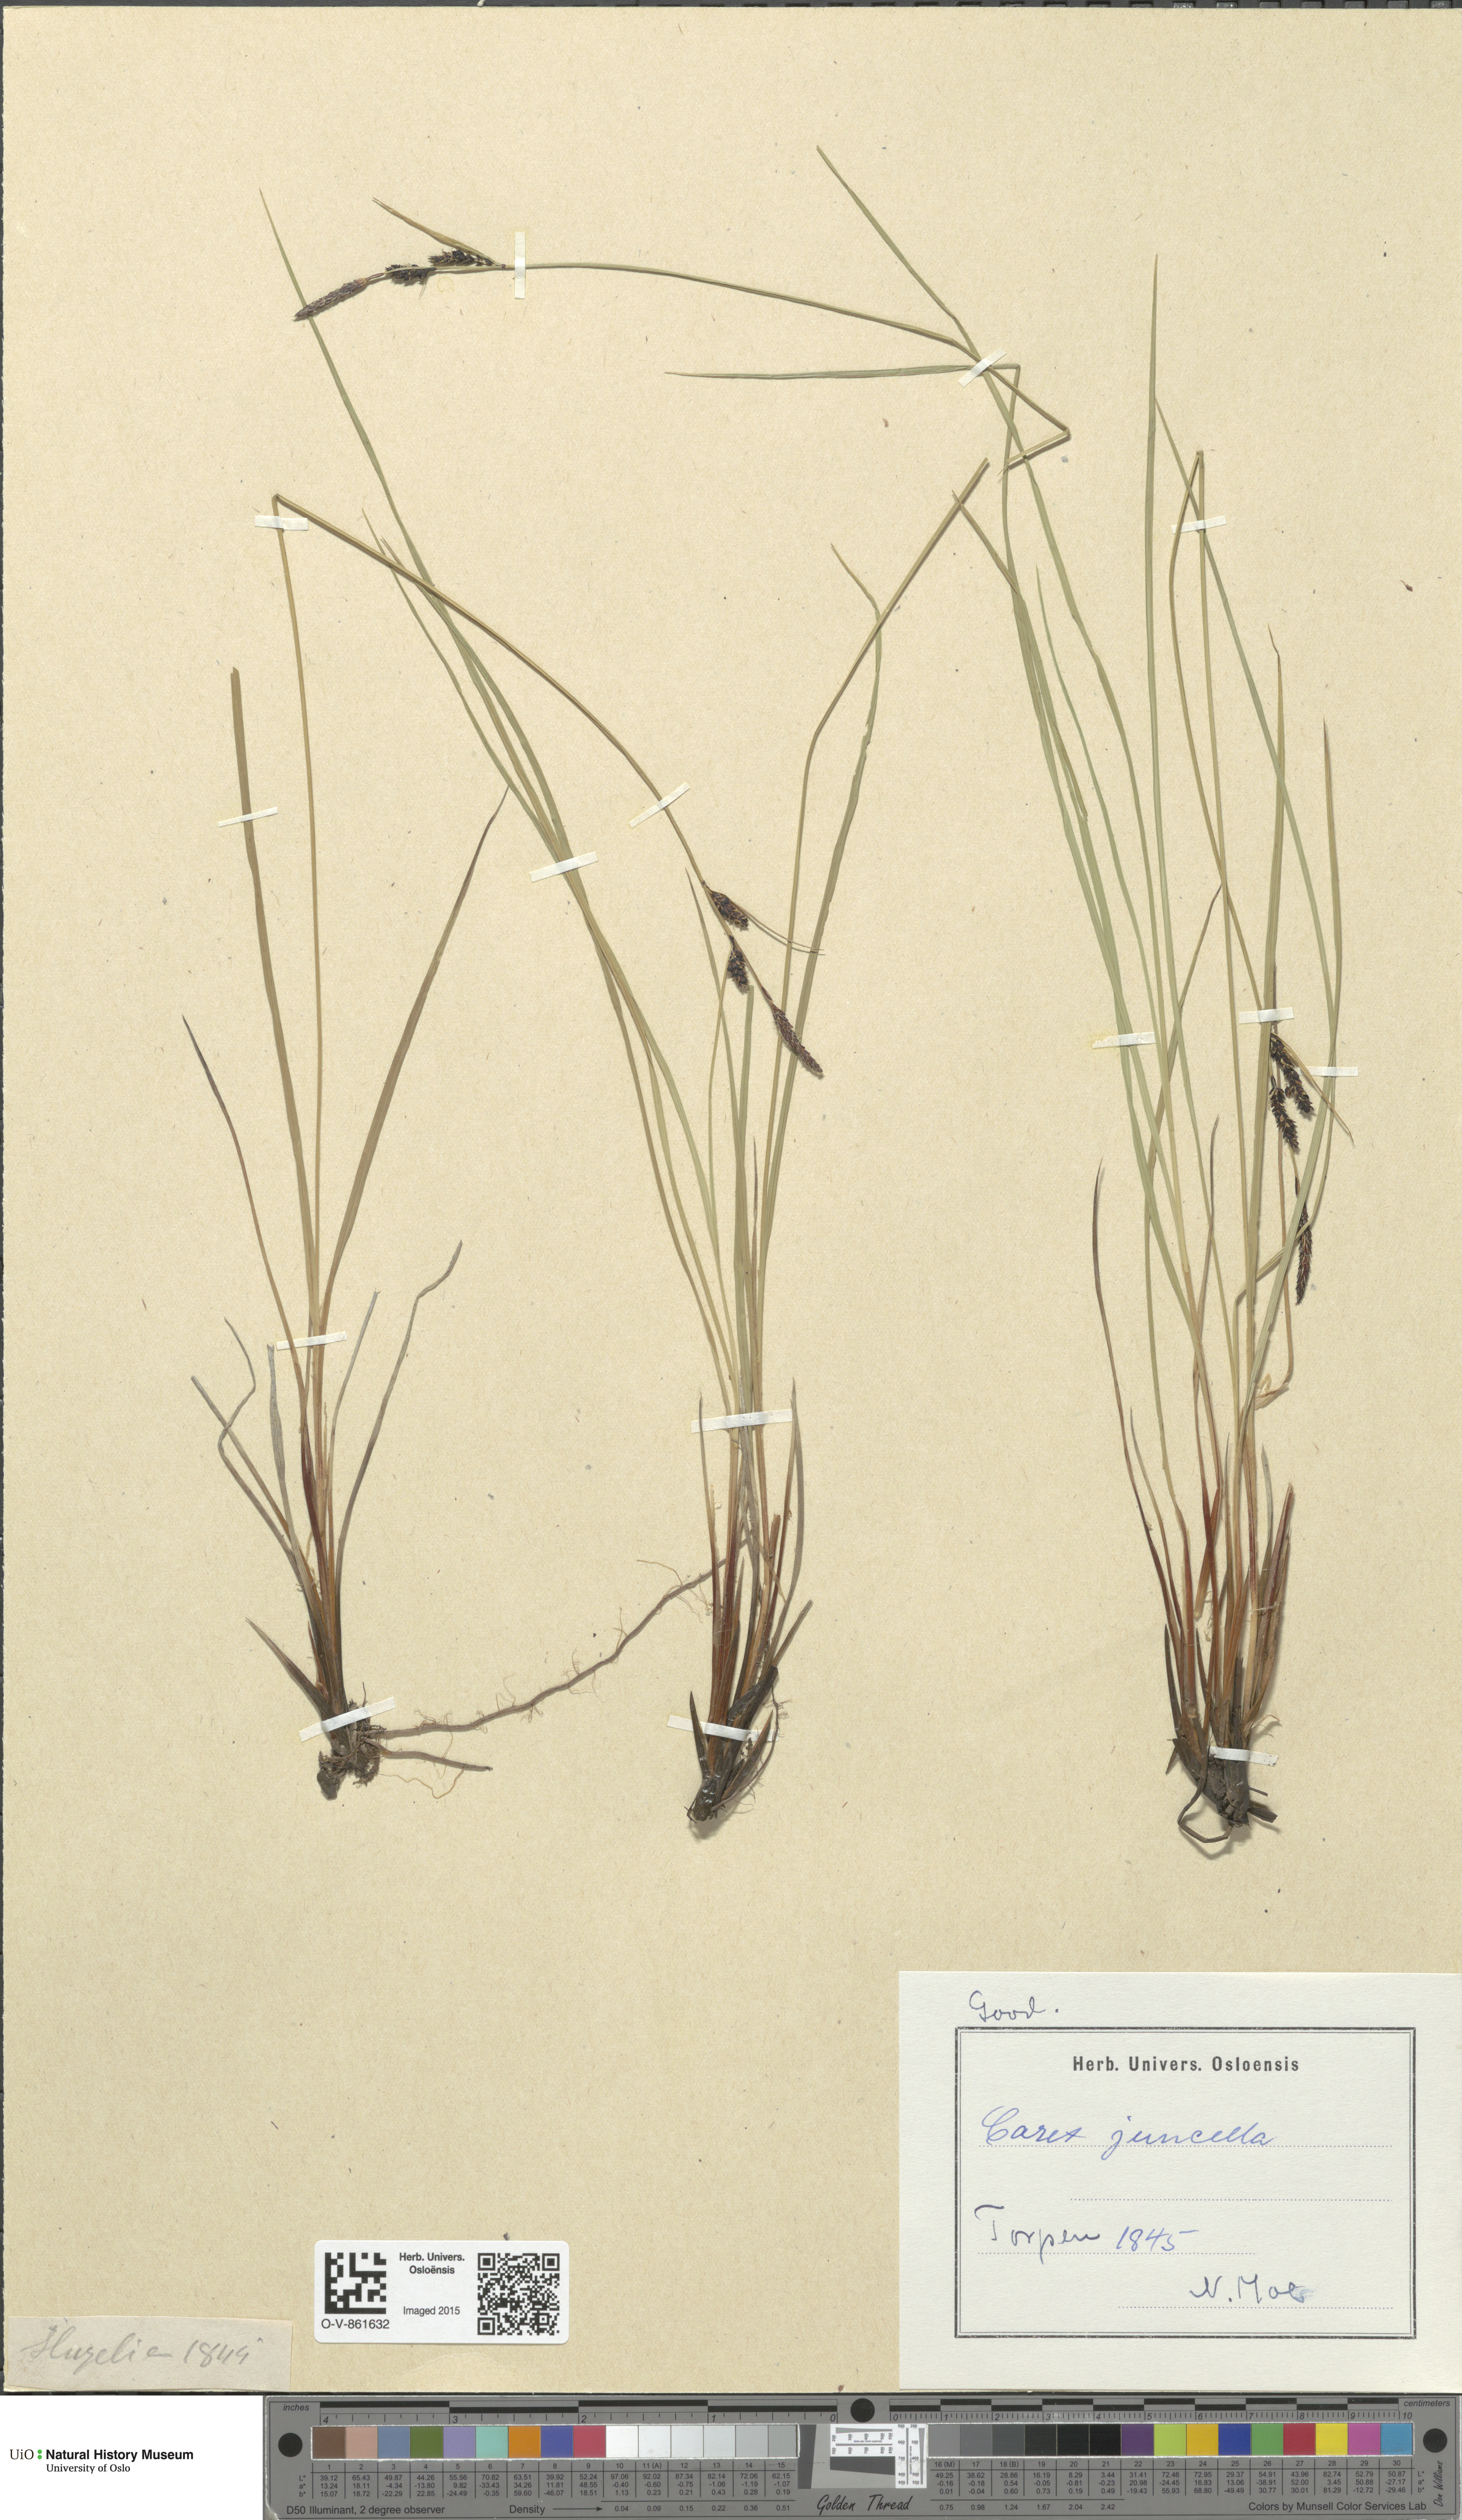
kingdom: Plantae
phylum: Tracheophyta
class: Liliopsida
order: Poales
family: Cyperaceae
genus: Carex
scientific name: Carex nigra
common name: Common sedge
